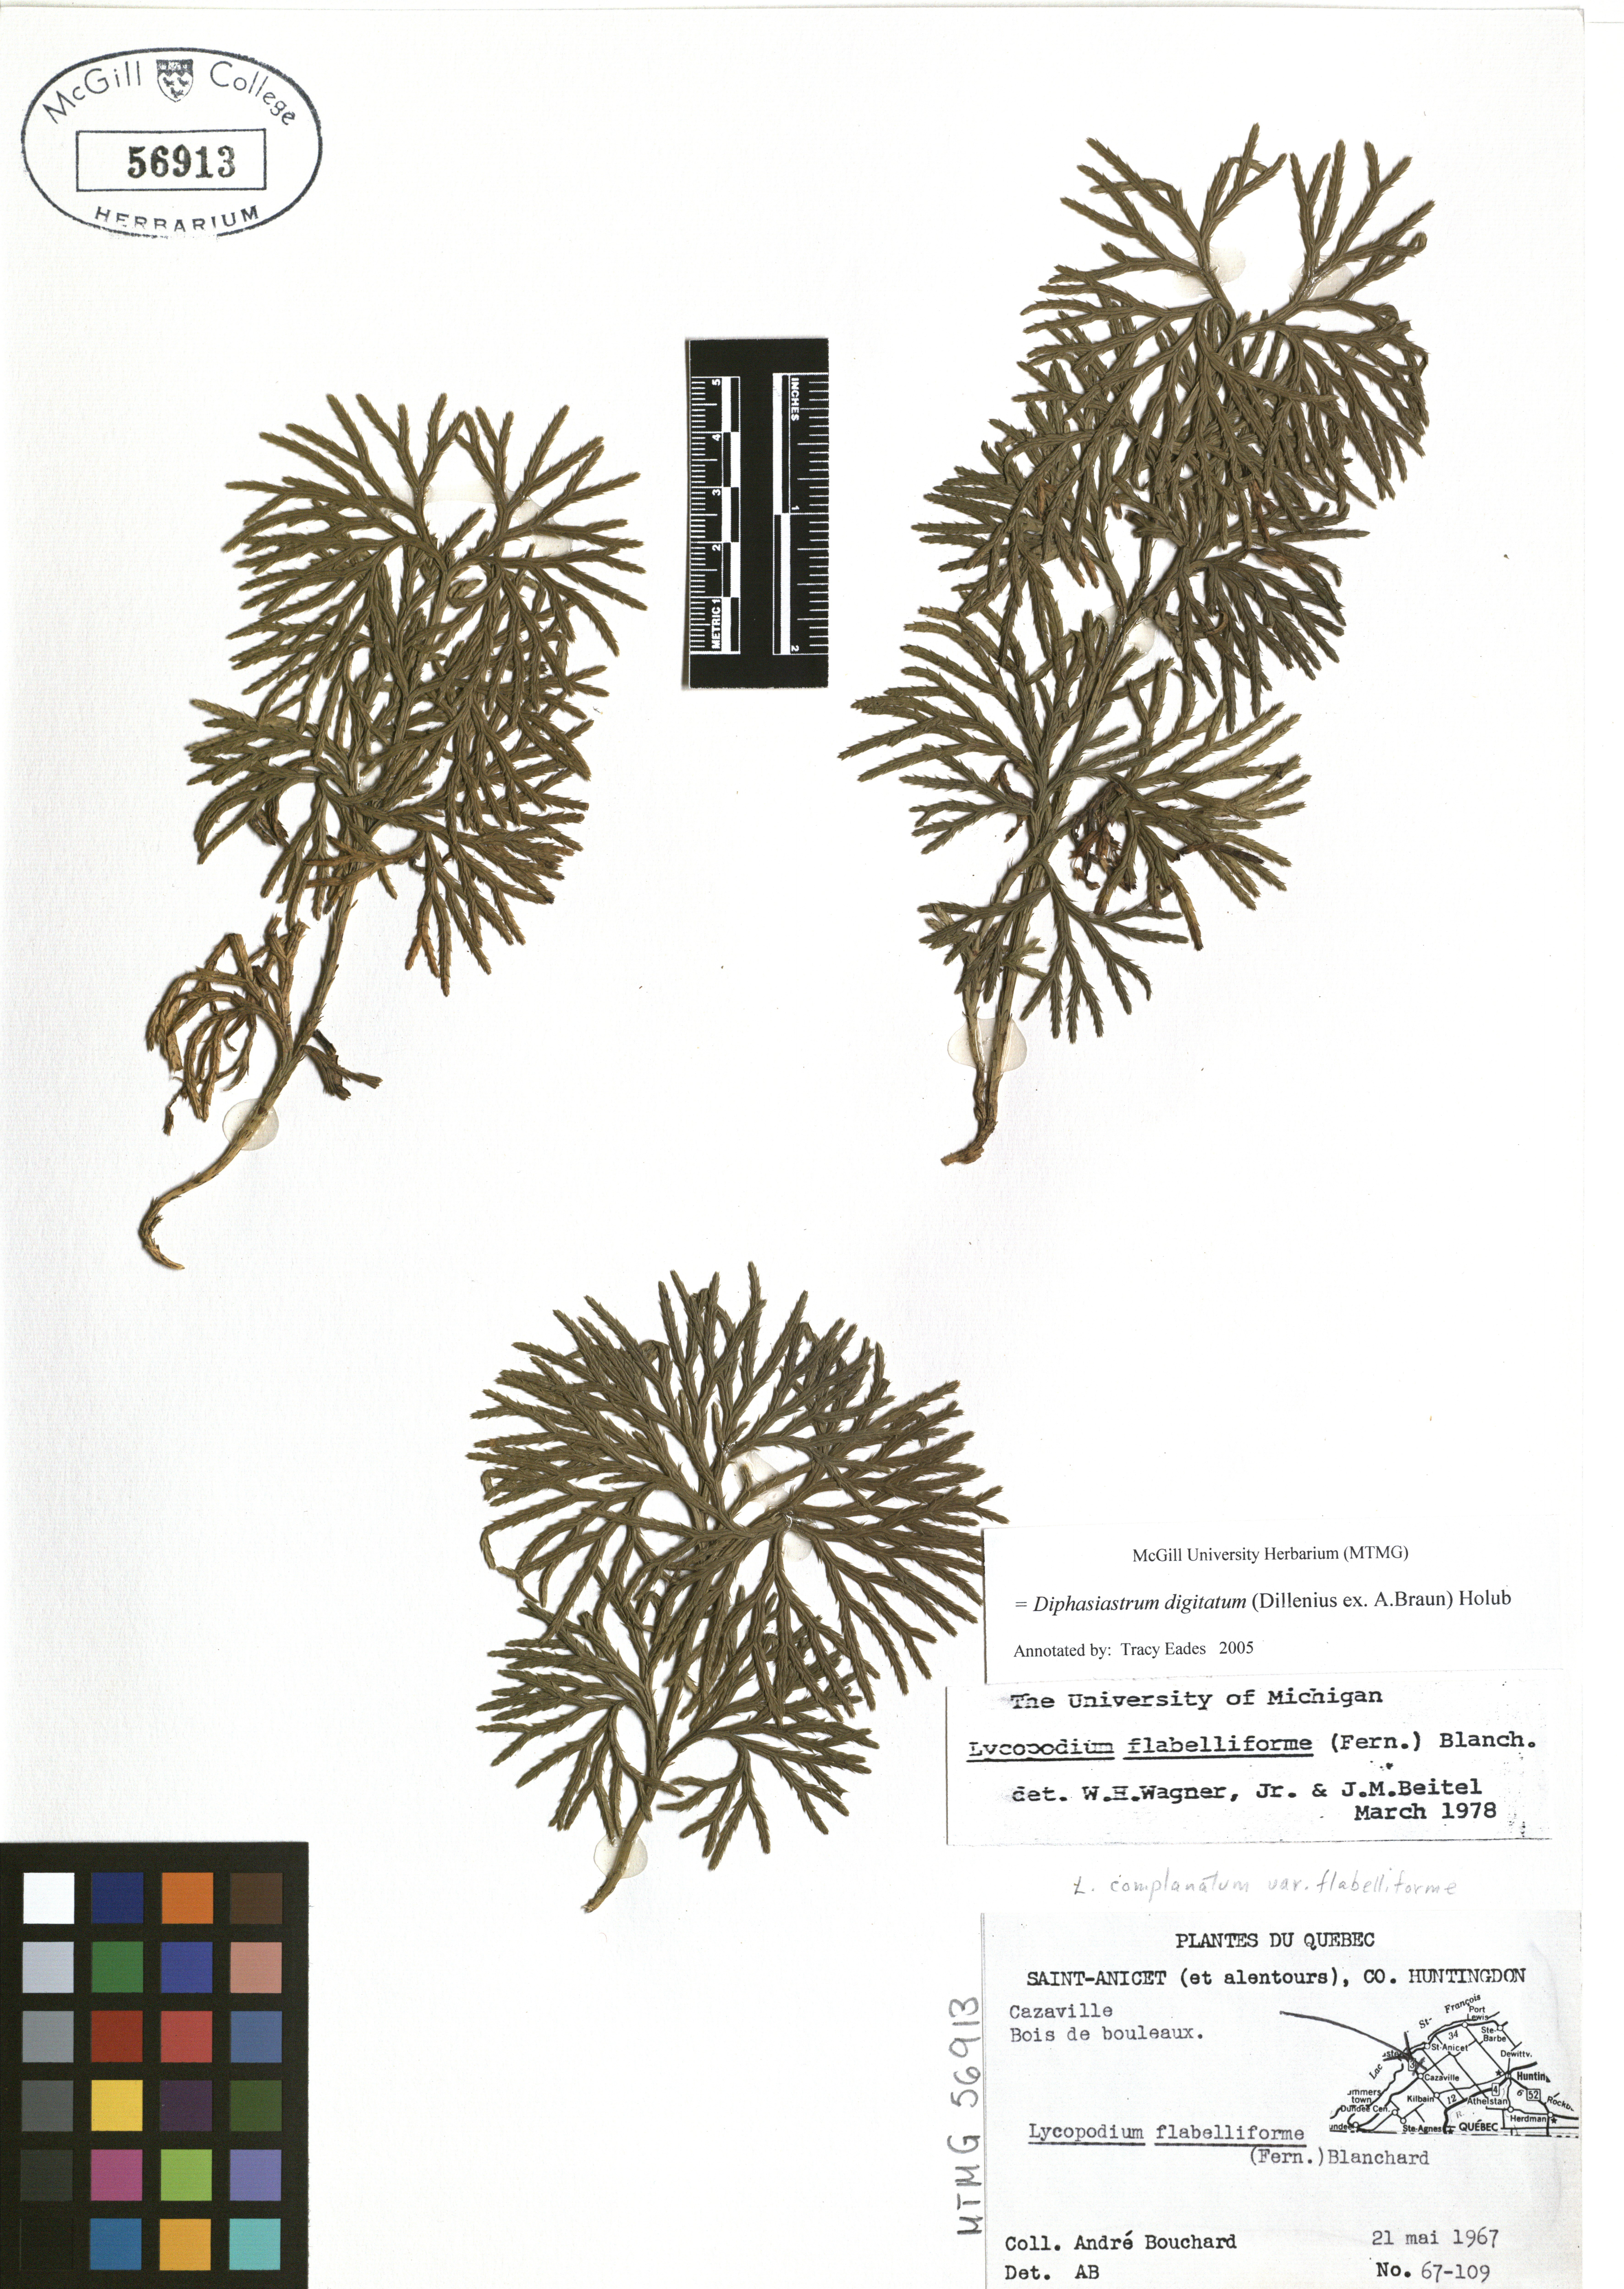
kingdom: Plantae
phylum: Tracheophyta
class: Lycopodiopsida
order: Lycopodiales
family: Lycopodiaceae
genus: Diphasiastrum
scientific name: Diphasiastrum digitatum
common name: Southern running-pine
